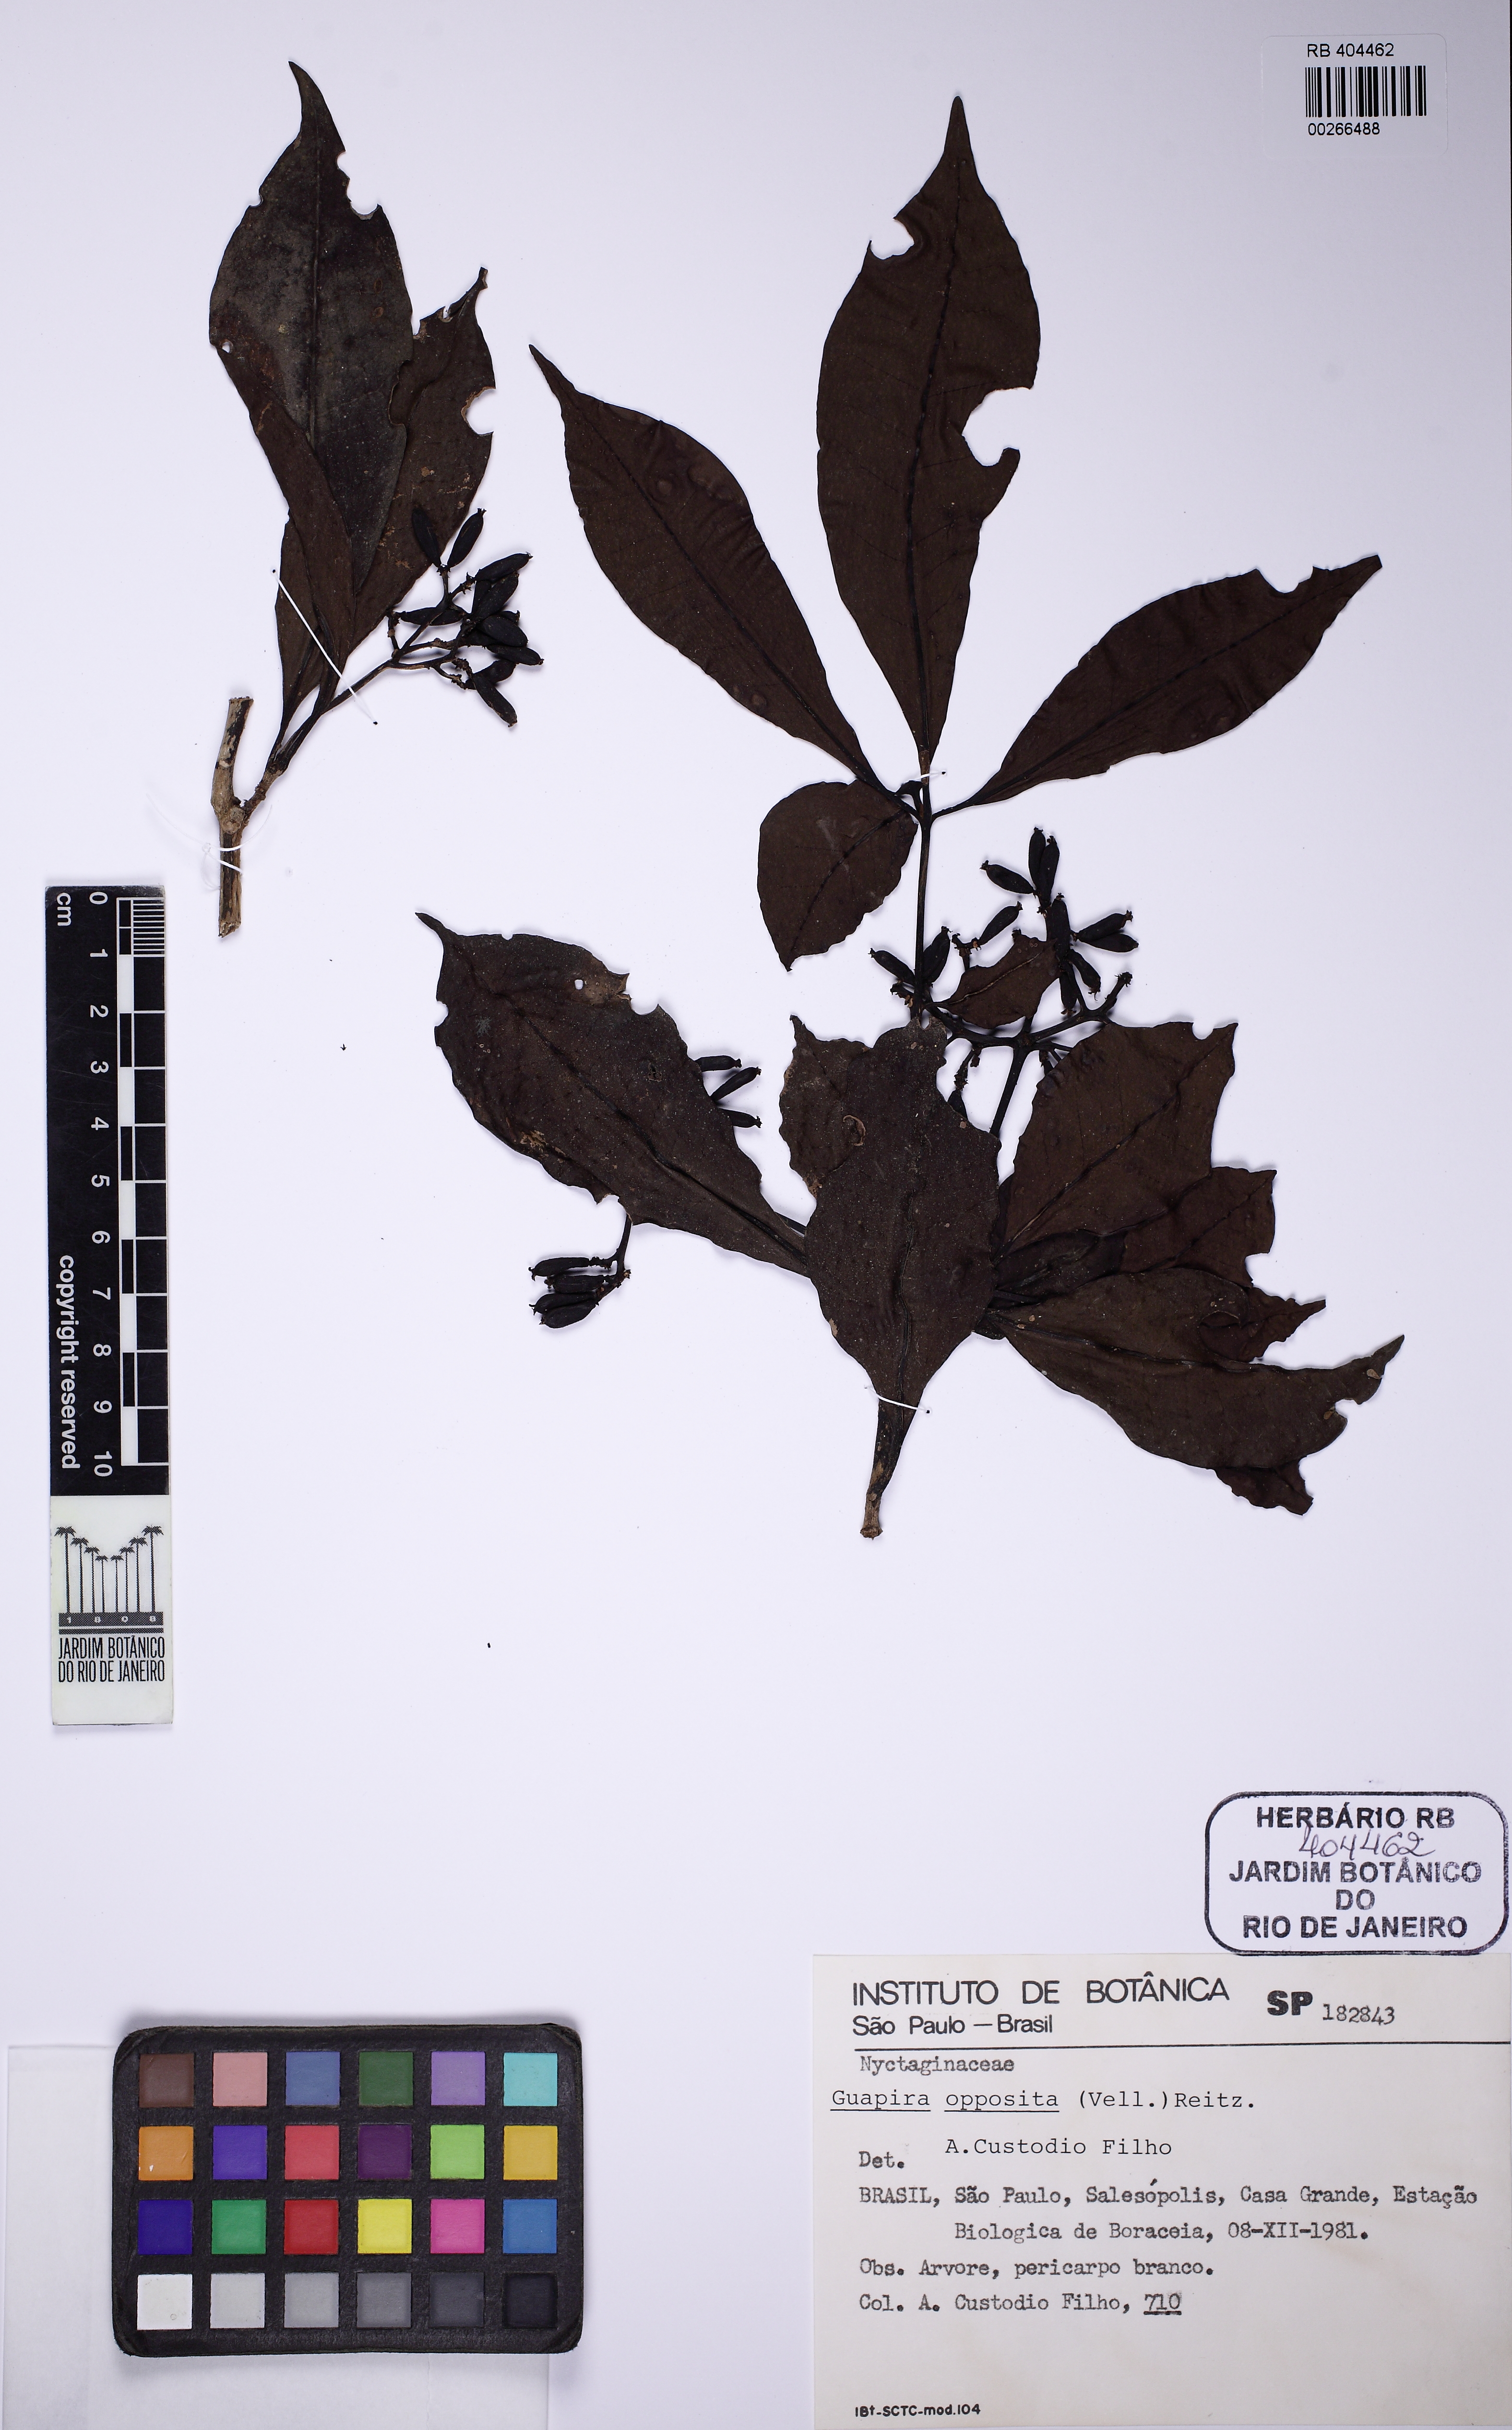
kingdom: Plantae
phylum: Tracheophyta
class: Magnoliopsida
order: Caryophyllales
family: Nyctaginaceae
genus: Guapira
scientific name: Guapira opposita
